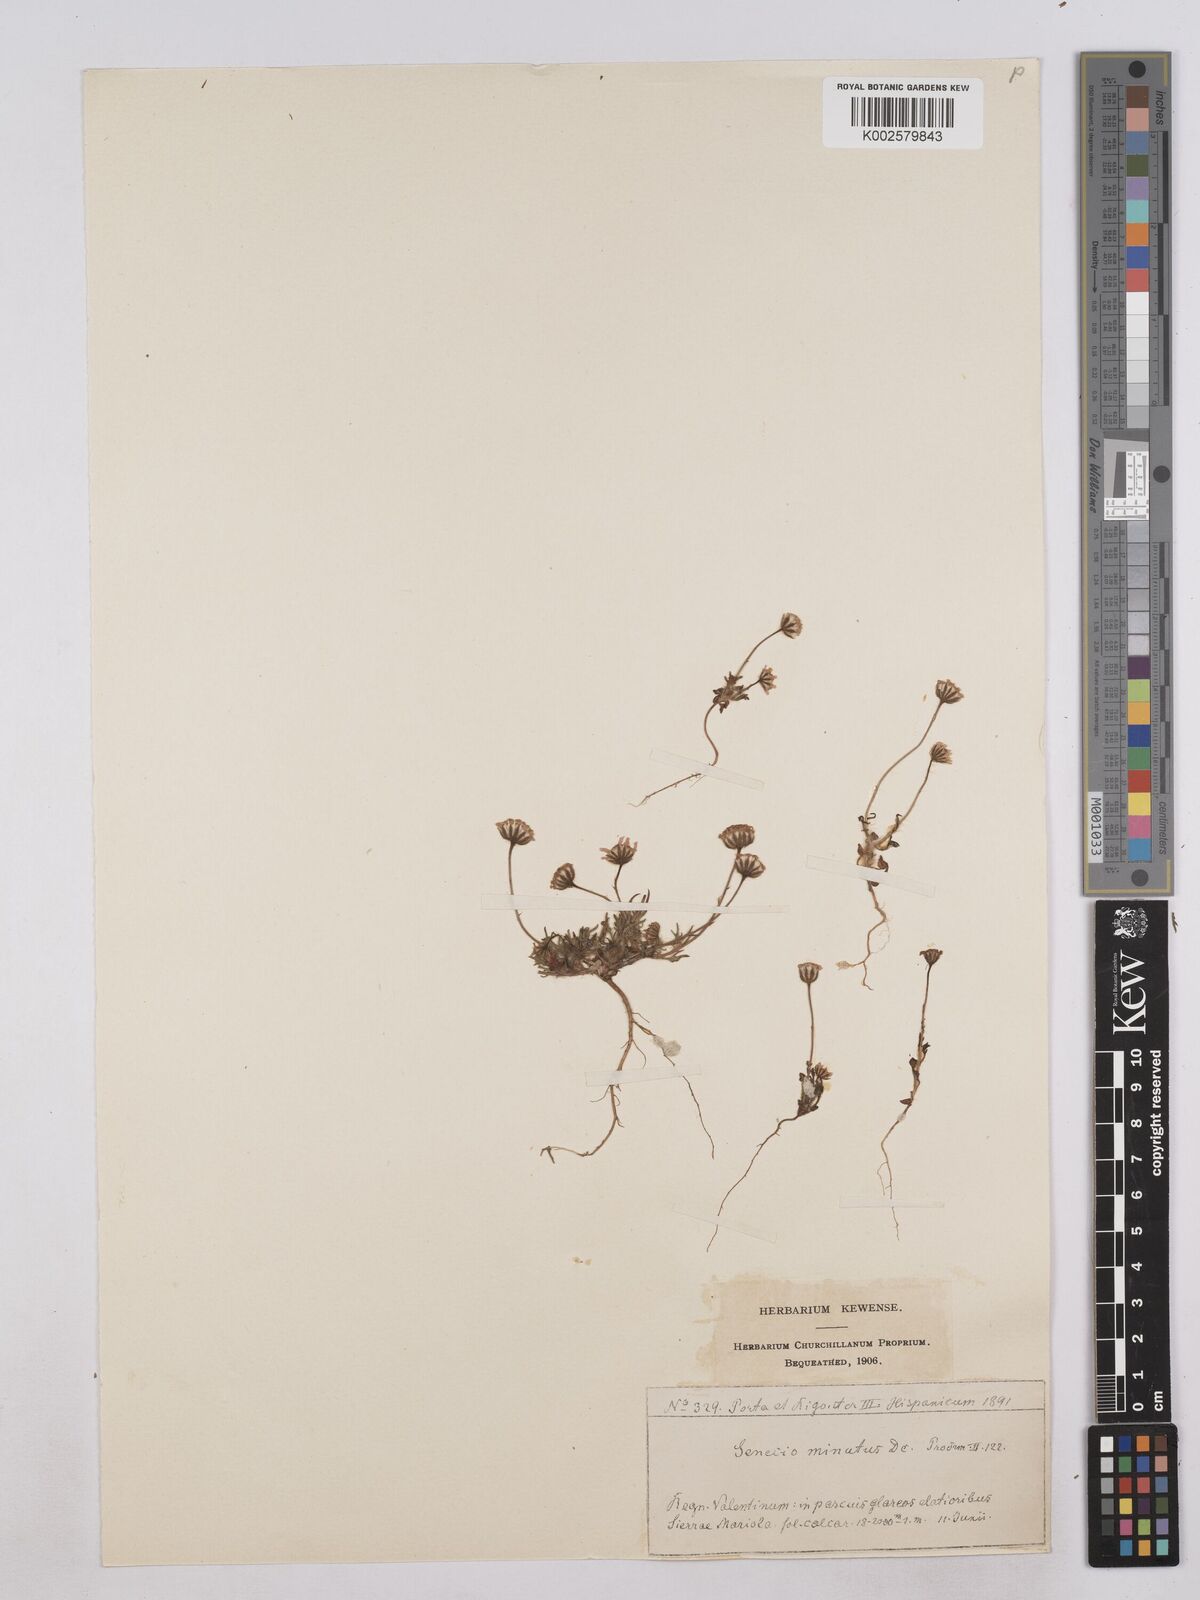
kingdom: Plantae
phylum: Tracheophyta
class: Magnoliopsida
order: Asterales
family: Asteraceae
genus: Jacobaea
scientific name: Jacobaea minuta
